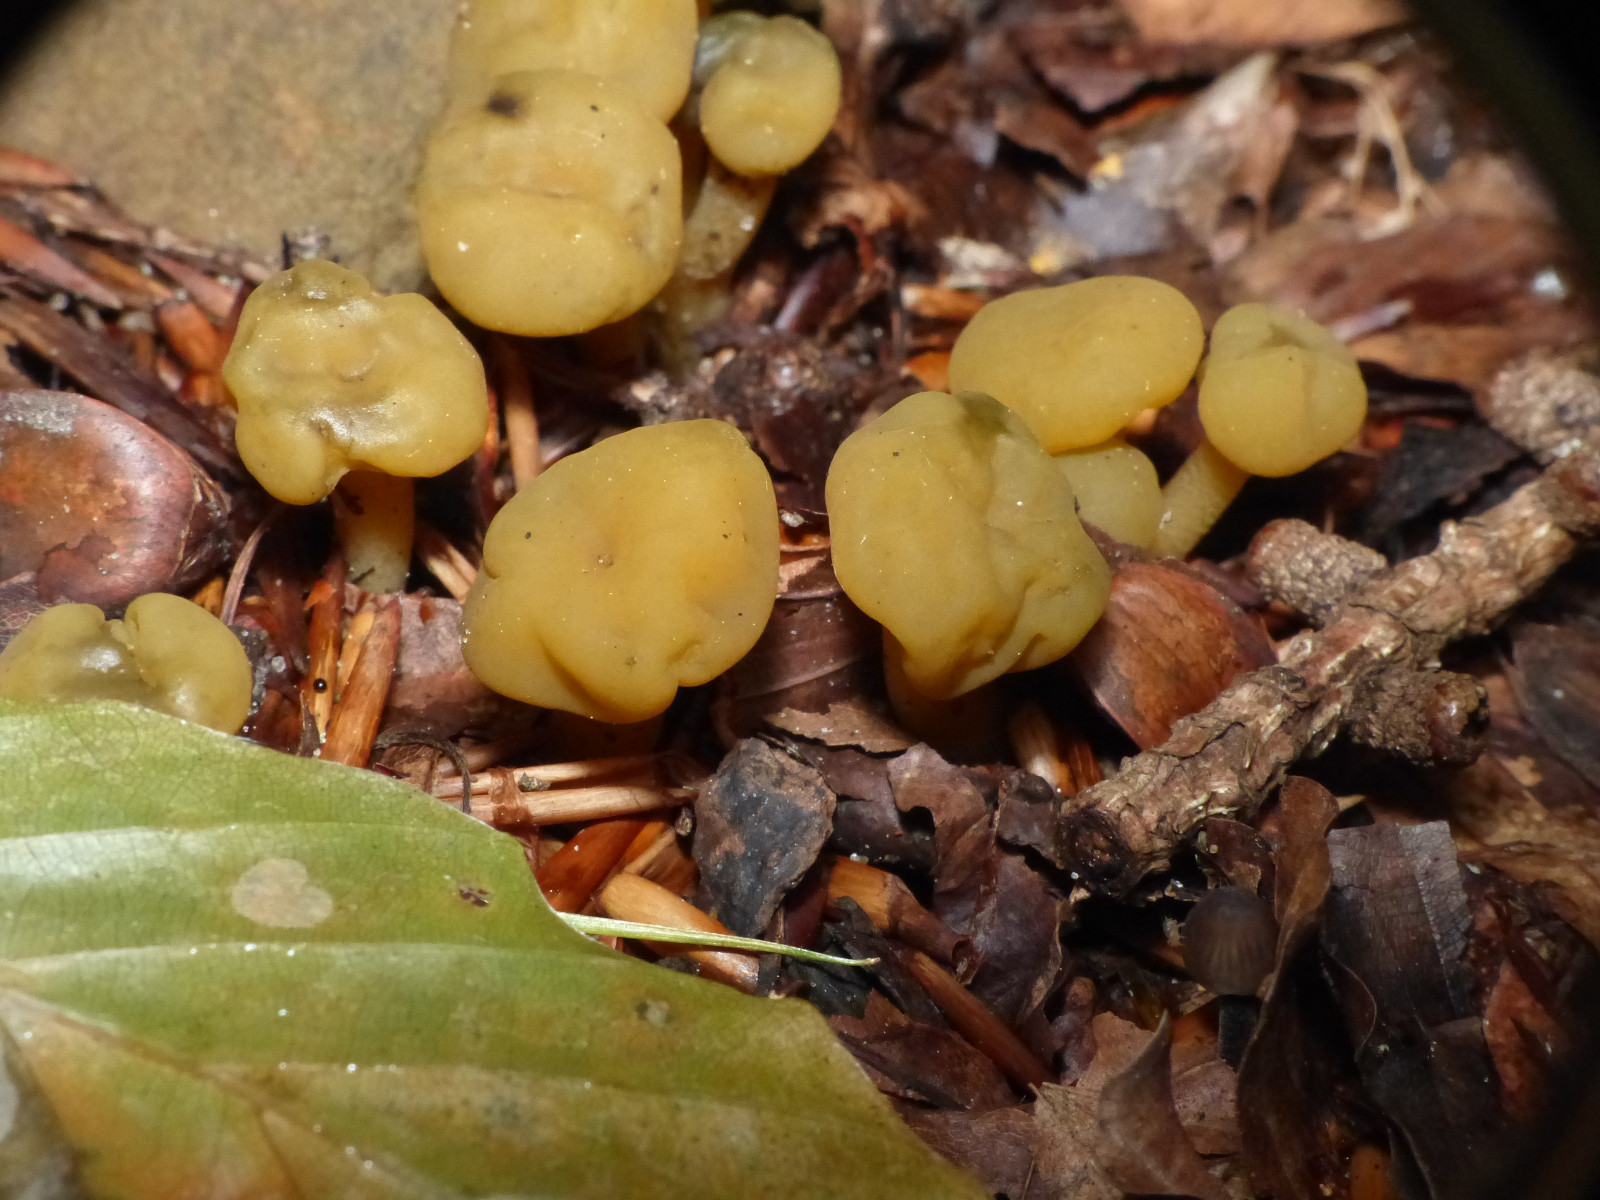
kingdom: Fungi
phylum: Ascomycota
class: Leotiomycetes
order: Leotiales
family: Leotiaceae
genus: Leotia
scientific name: Leotia lubrica
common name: ravsvamp
